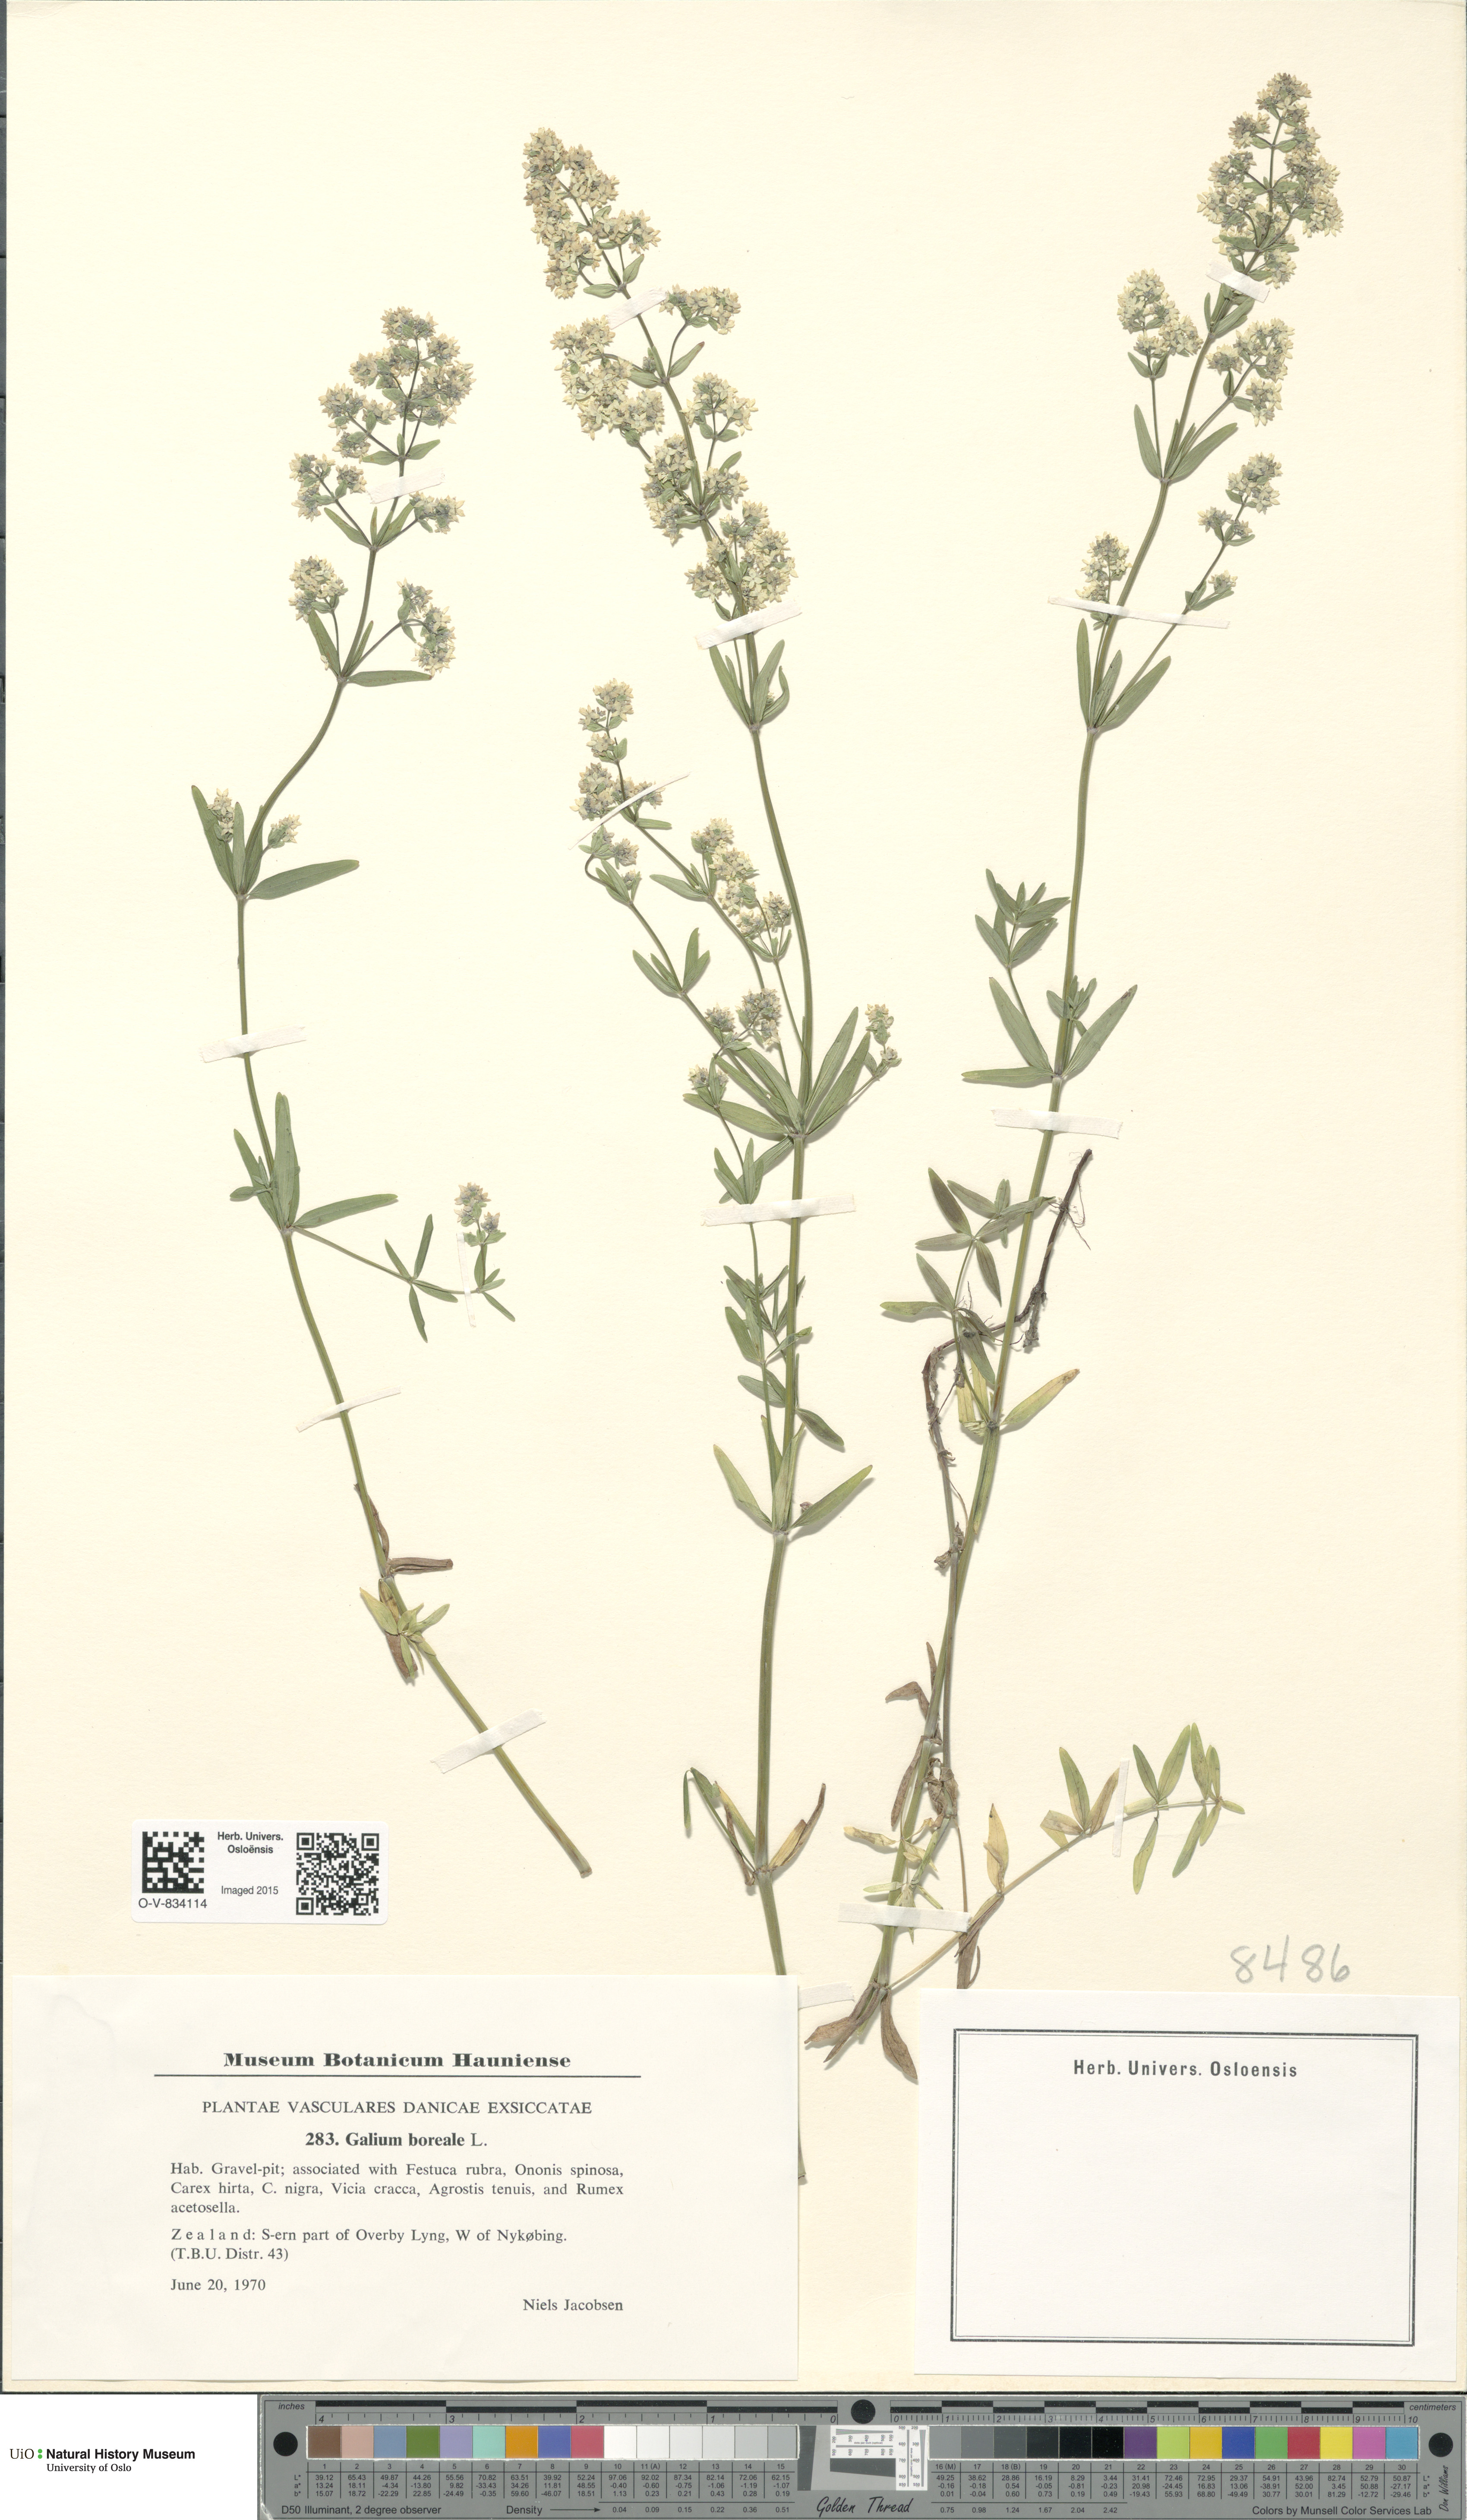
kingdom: Plantae
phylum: Tracheophyta
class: Magnoliopsida
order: Gentianales
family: Rubiaceae
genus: Galium
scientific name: Galium boreale
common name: Northern bedstraw
